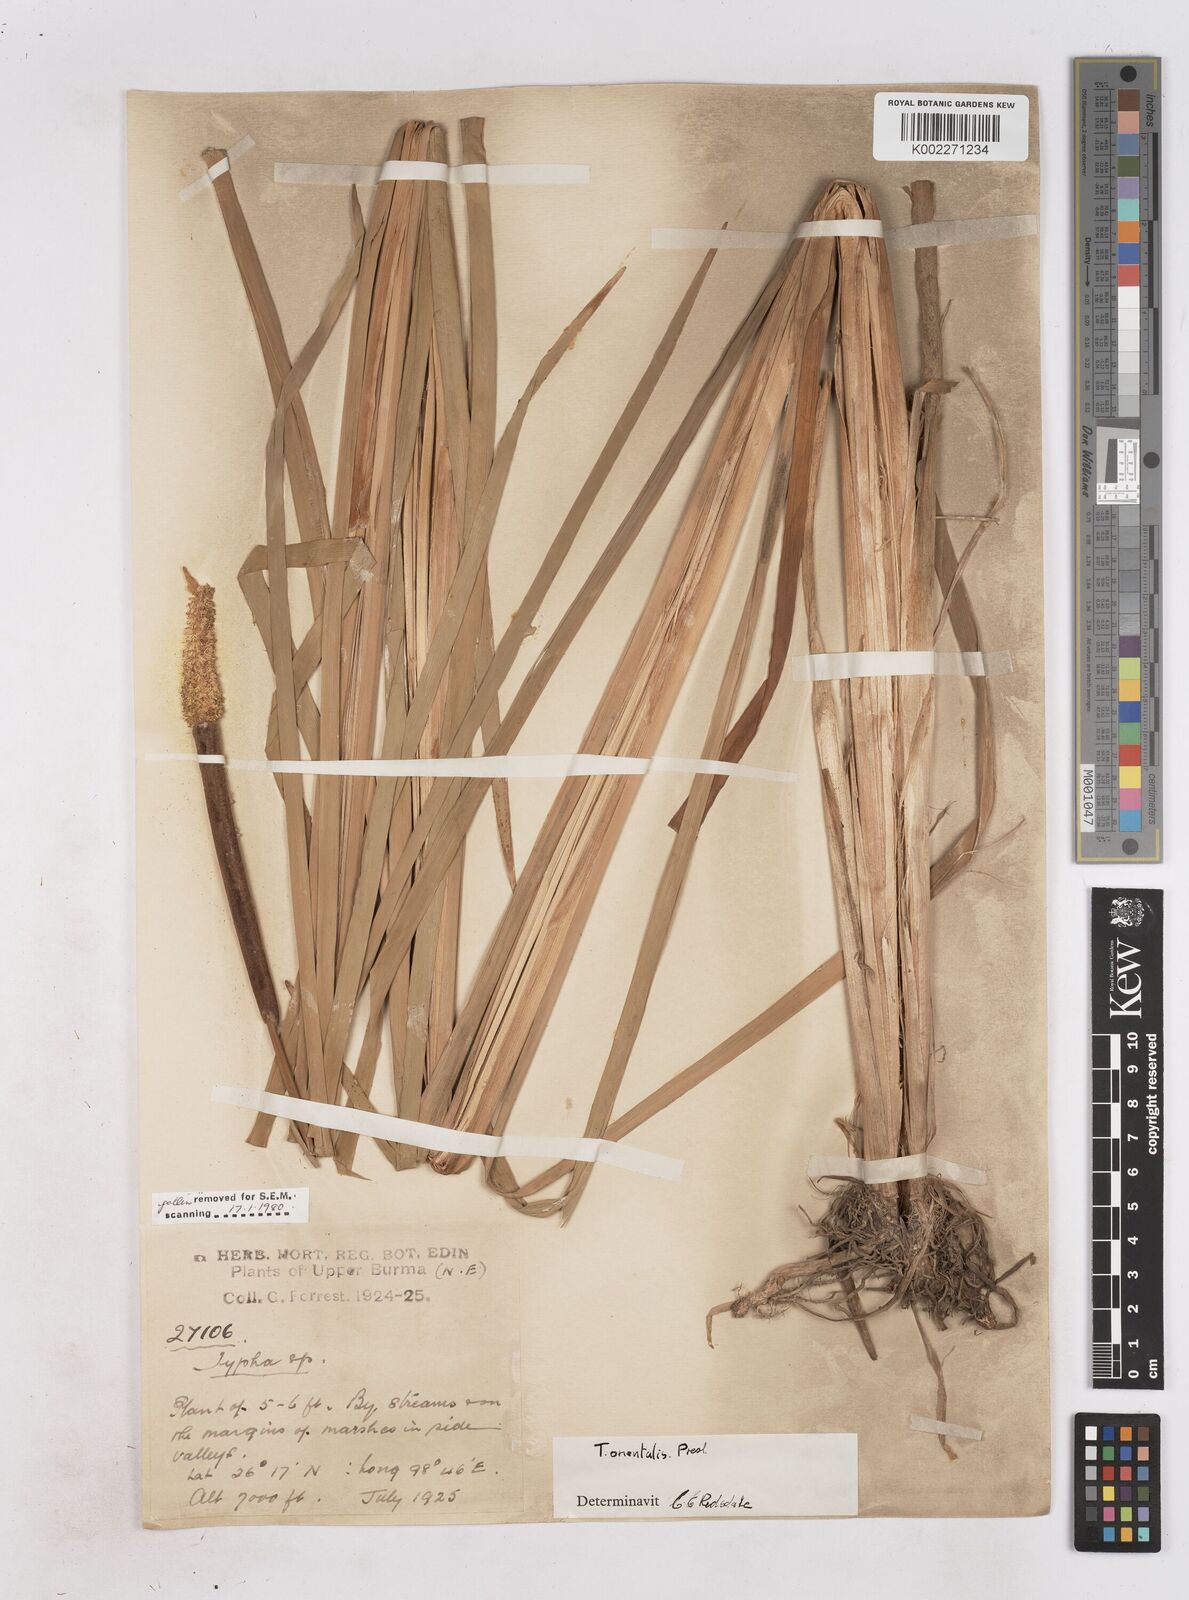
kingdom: Plantae
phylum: Tracheophyta
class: Liliopsida
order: Poales
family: Typhaceae
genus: Typha
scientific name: Typha orientalis
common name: Bullrush
